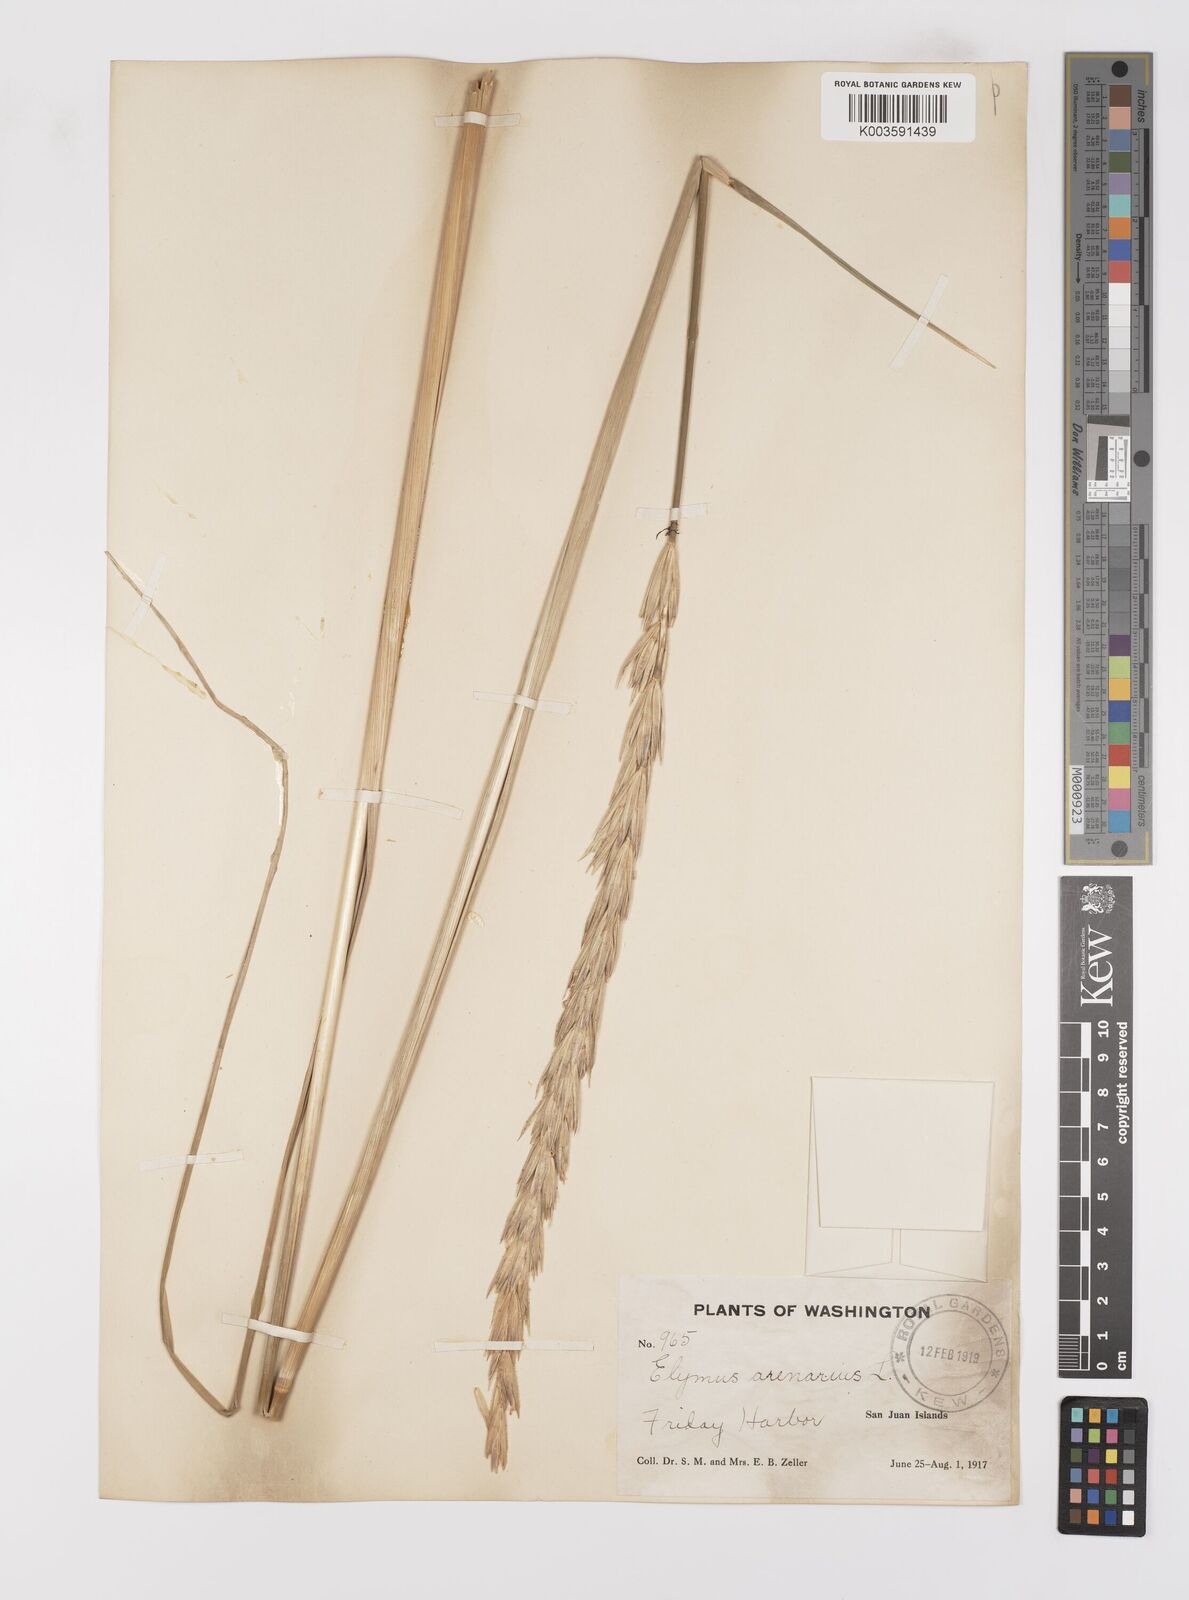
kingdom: Plantae
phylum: Tracheophyta
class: Liliopsida
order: Poales
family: Poaceae
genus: Leymus
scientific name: Leymus mollis
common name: American dune grass
